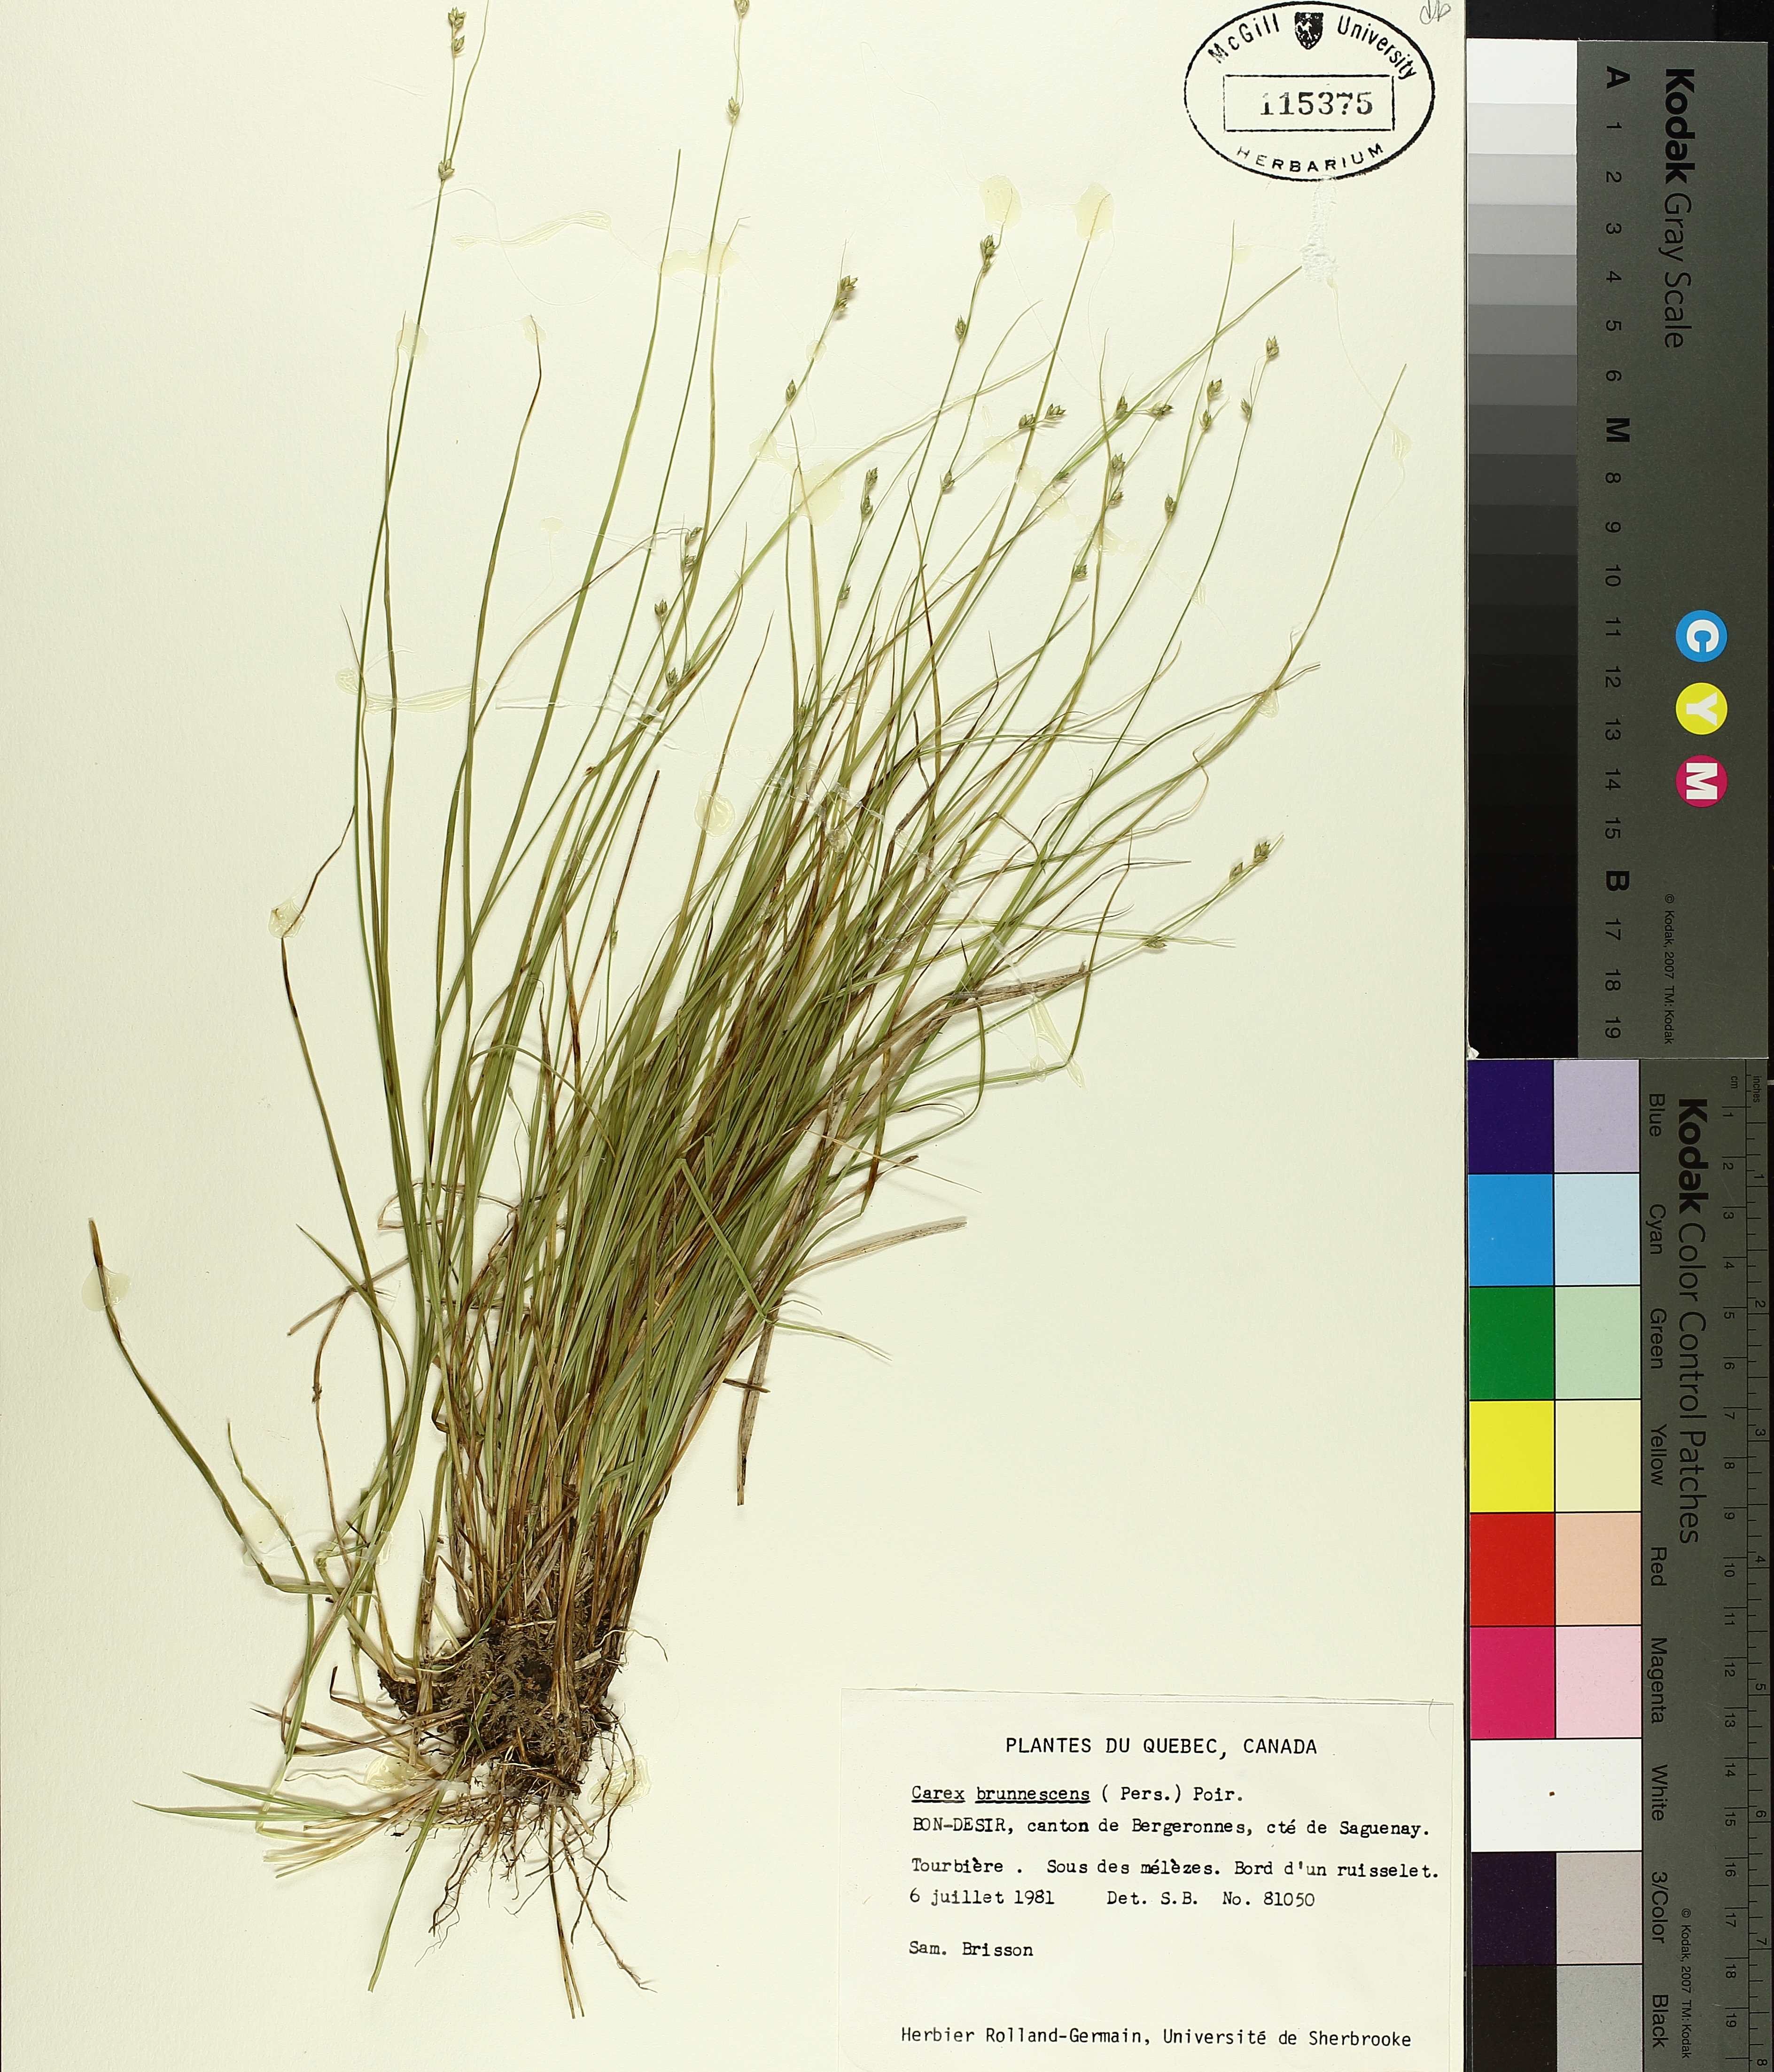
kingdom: Plantae
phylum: Tracheophyta
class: Liliopsida
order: Poales
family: Cyperaceae
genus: Carex
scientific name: Carex brunnescens
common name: Brown sedge
